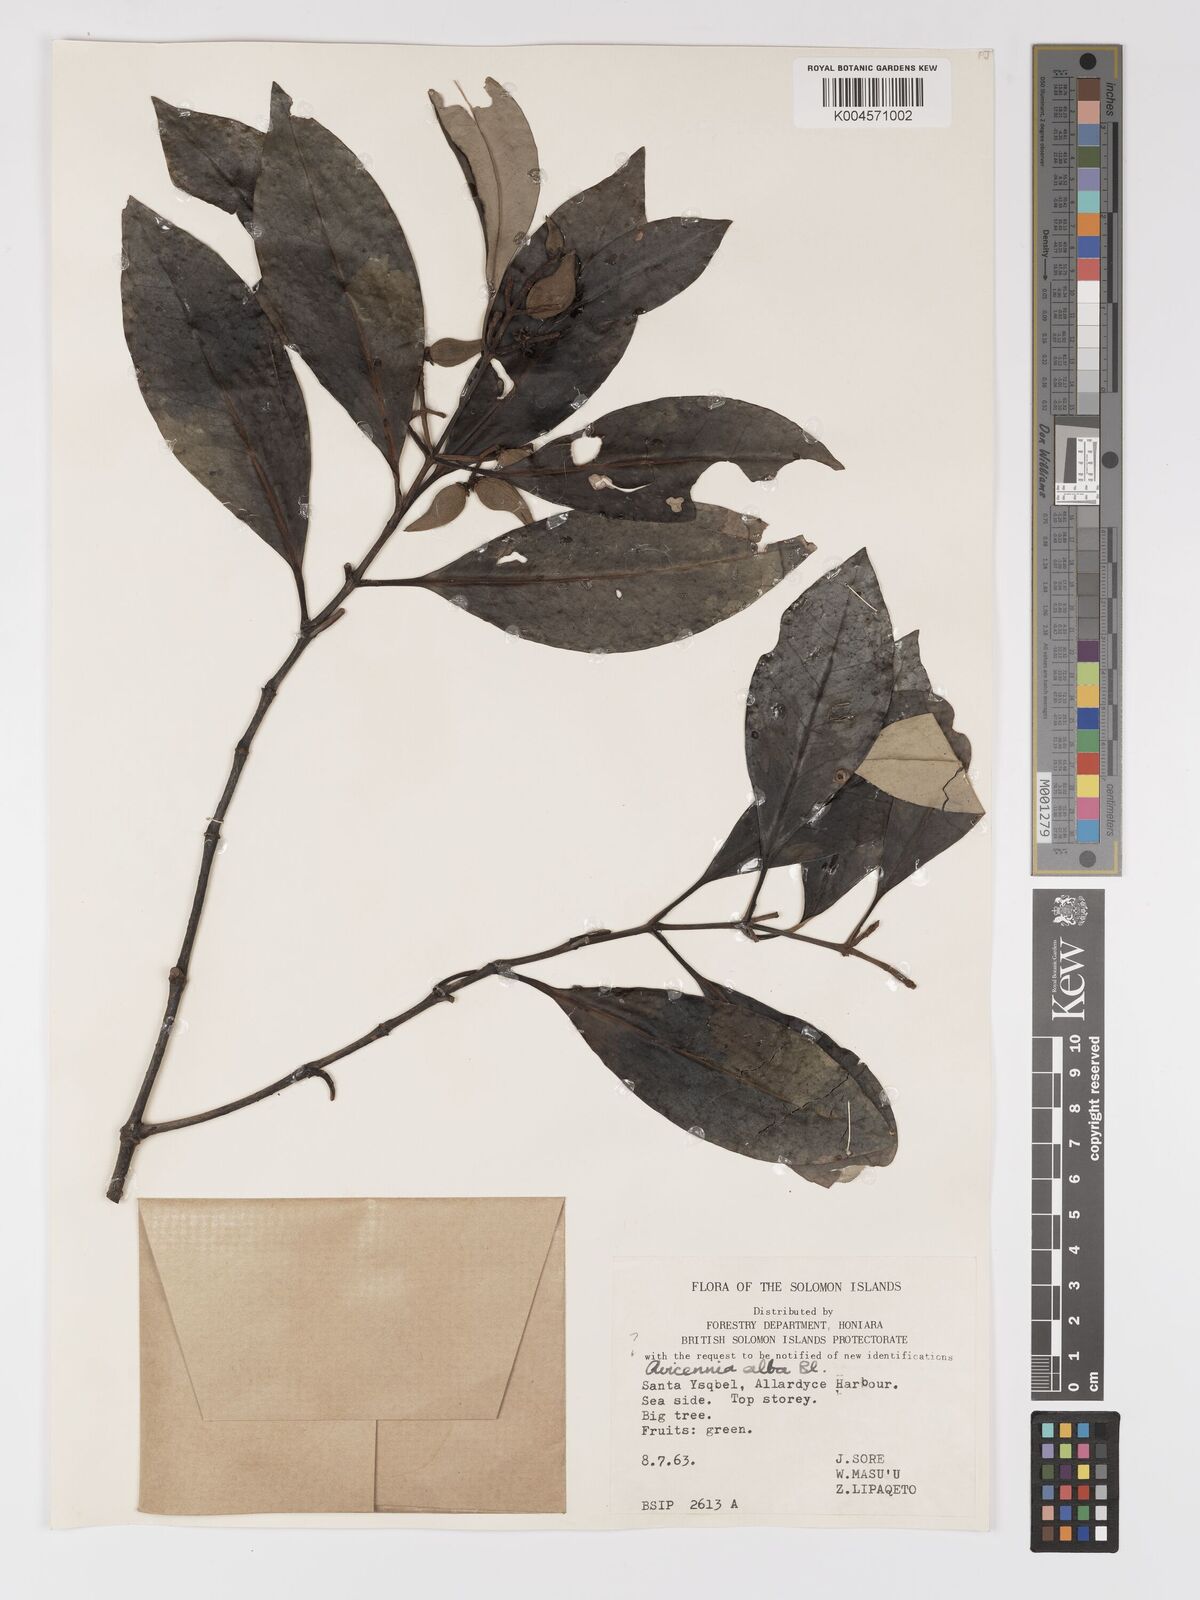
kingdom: Plantae
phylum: Tracheophyta
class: Magnoliopsida
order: Lamiales
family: Acanthaceae
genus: Avicennia
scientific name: Avicennia alba
